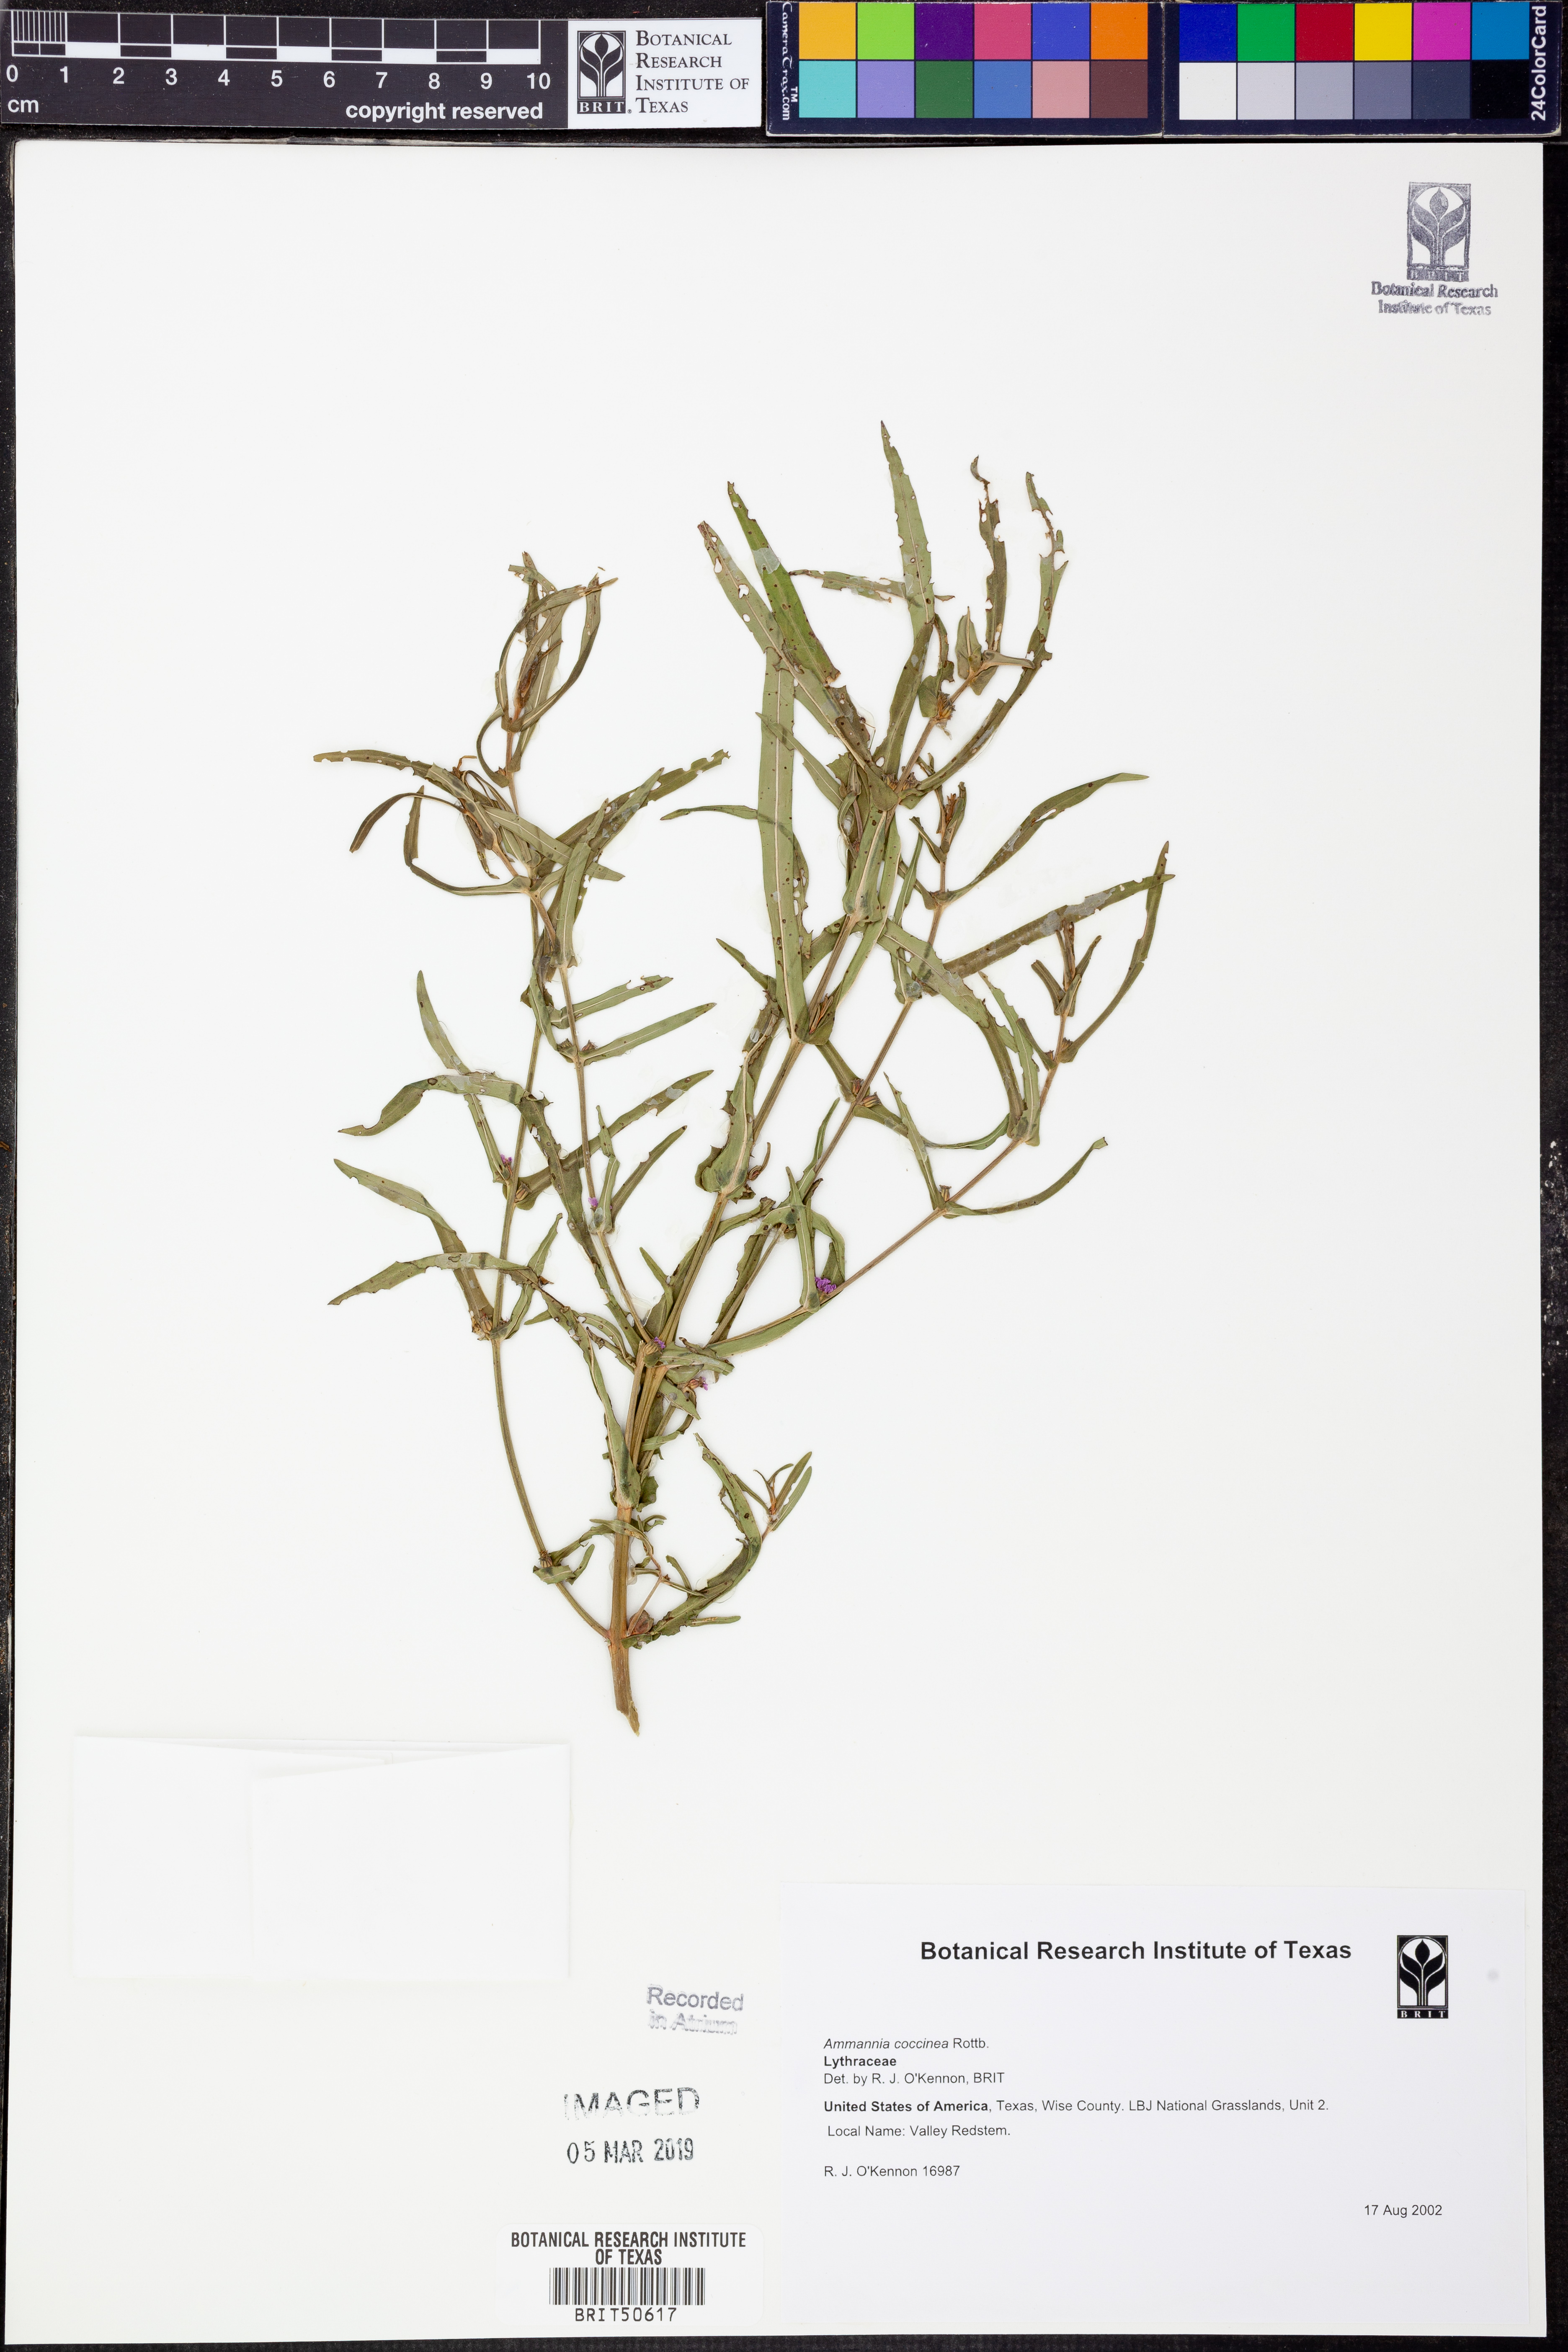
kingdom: Plantae
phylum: Tracheophyta
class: Magnoliopsida
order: Myrtales
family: Lythraceae
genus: Ammannia
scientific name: Ammannia coccinea
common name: Valley redstem
